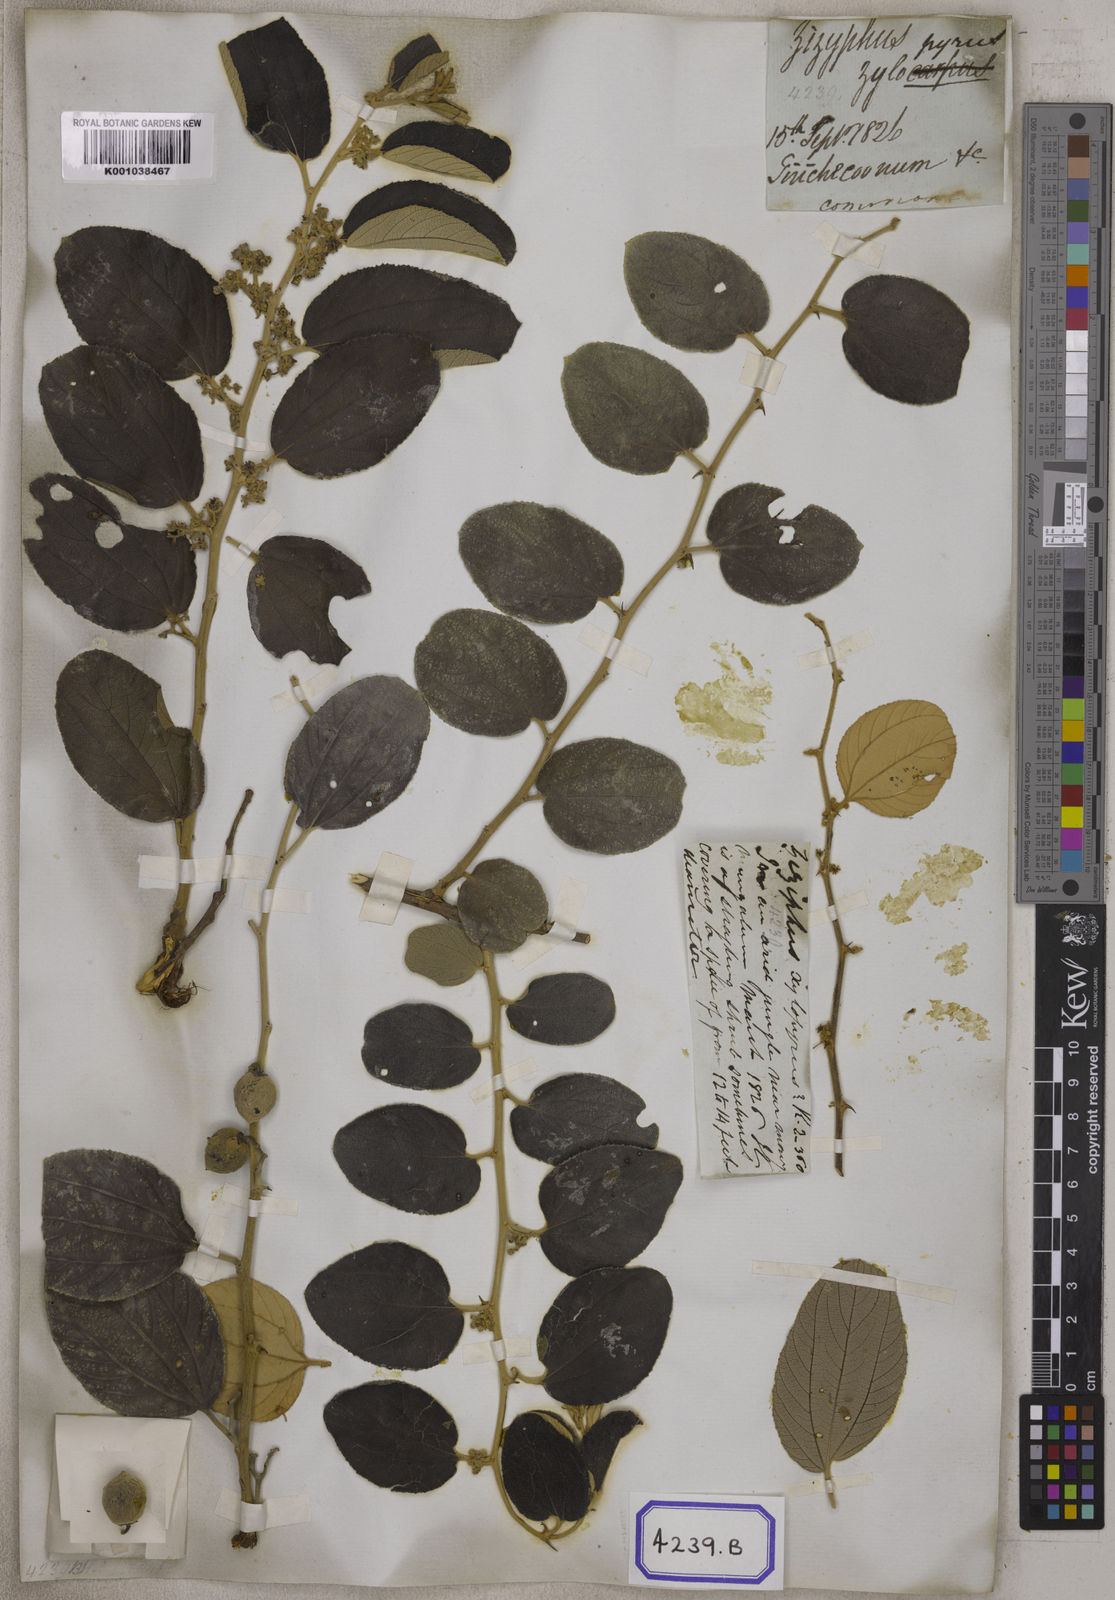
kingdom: Plantae
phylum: Tracheophyta
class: Magnoliopsida
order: Rosales
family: Rhamnaceae
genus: Ziziphus
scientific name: Ziziphus xylopyrus
